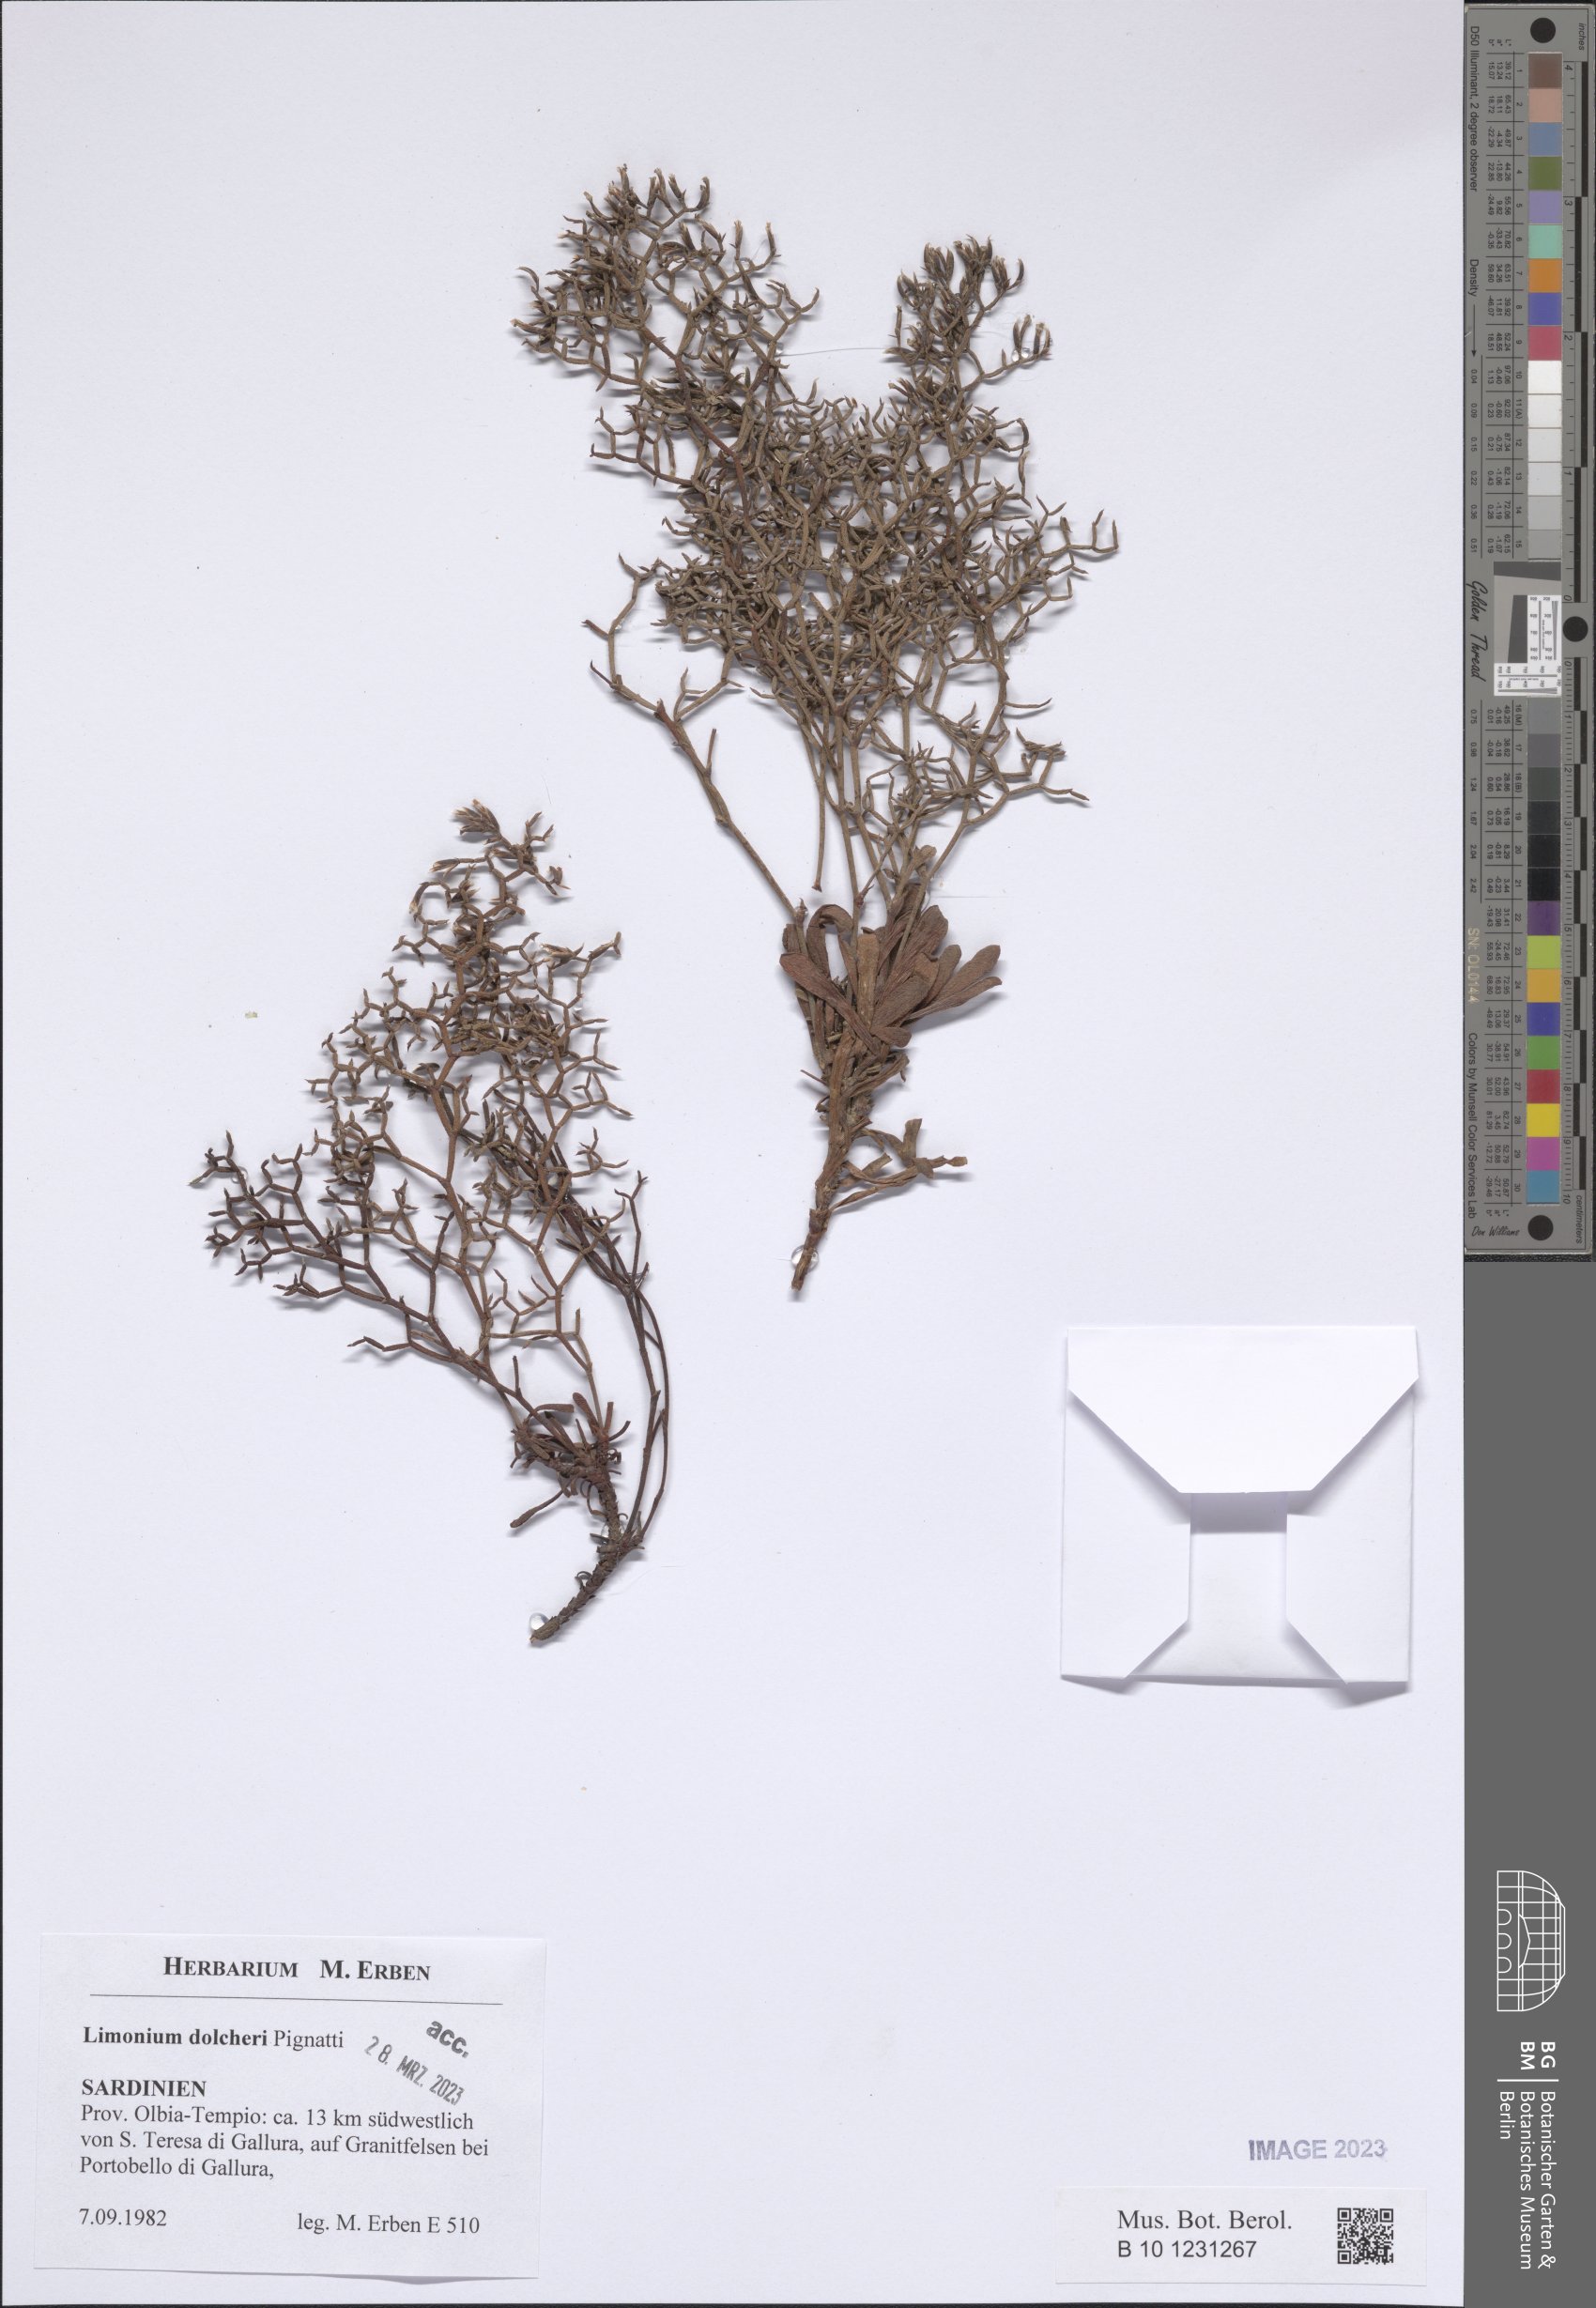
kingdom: Plantae
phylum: Tracheophyta
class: Magnoliopsida
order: Caryophyllales
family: Plumbaginaceae
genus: Limonium
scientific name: Limonium dolcheri
